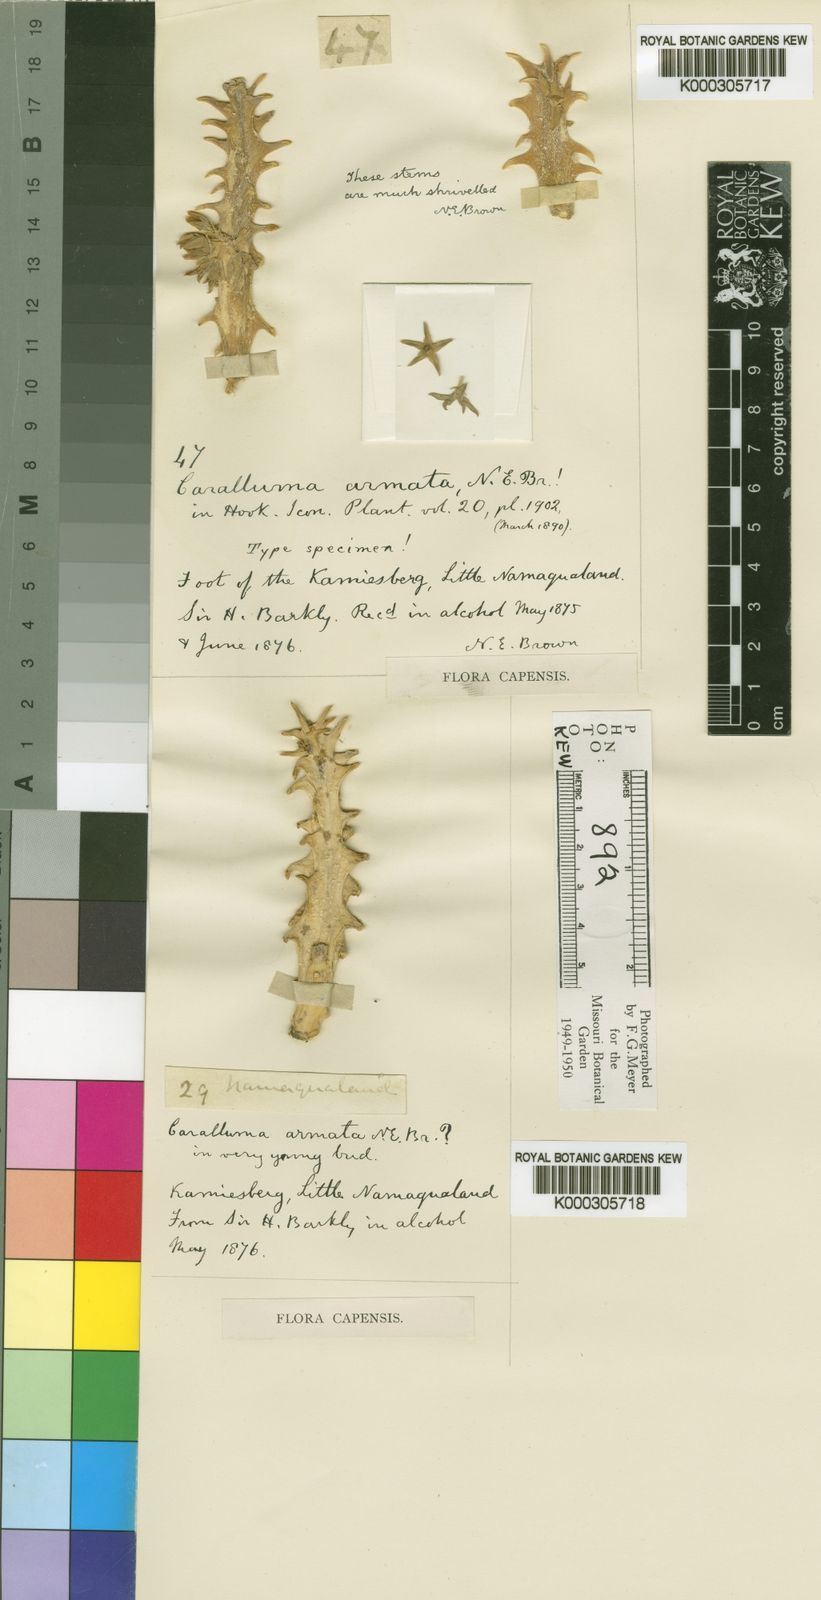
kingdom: Plantae
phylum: Tracheophyta
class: Magnoliopsida
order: Gentianales
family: Apocynaceae
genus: Ceropegia
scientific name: Ceropegia armata
